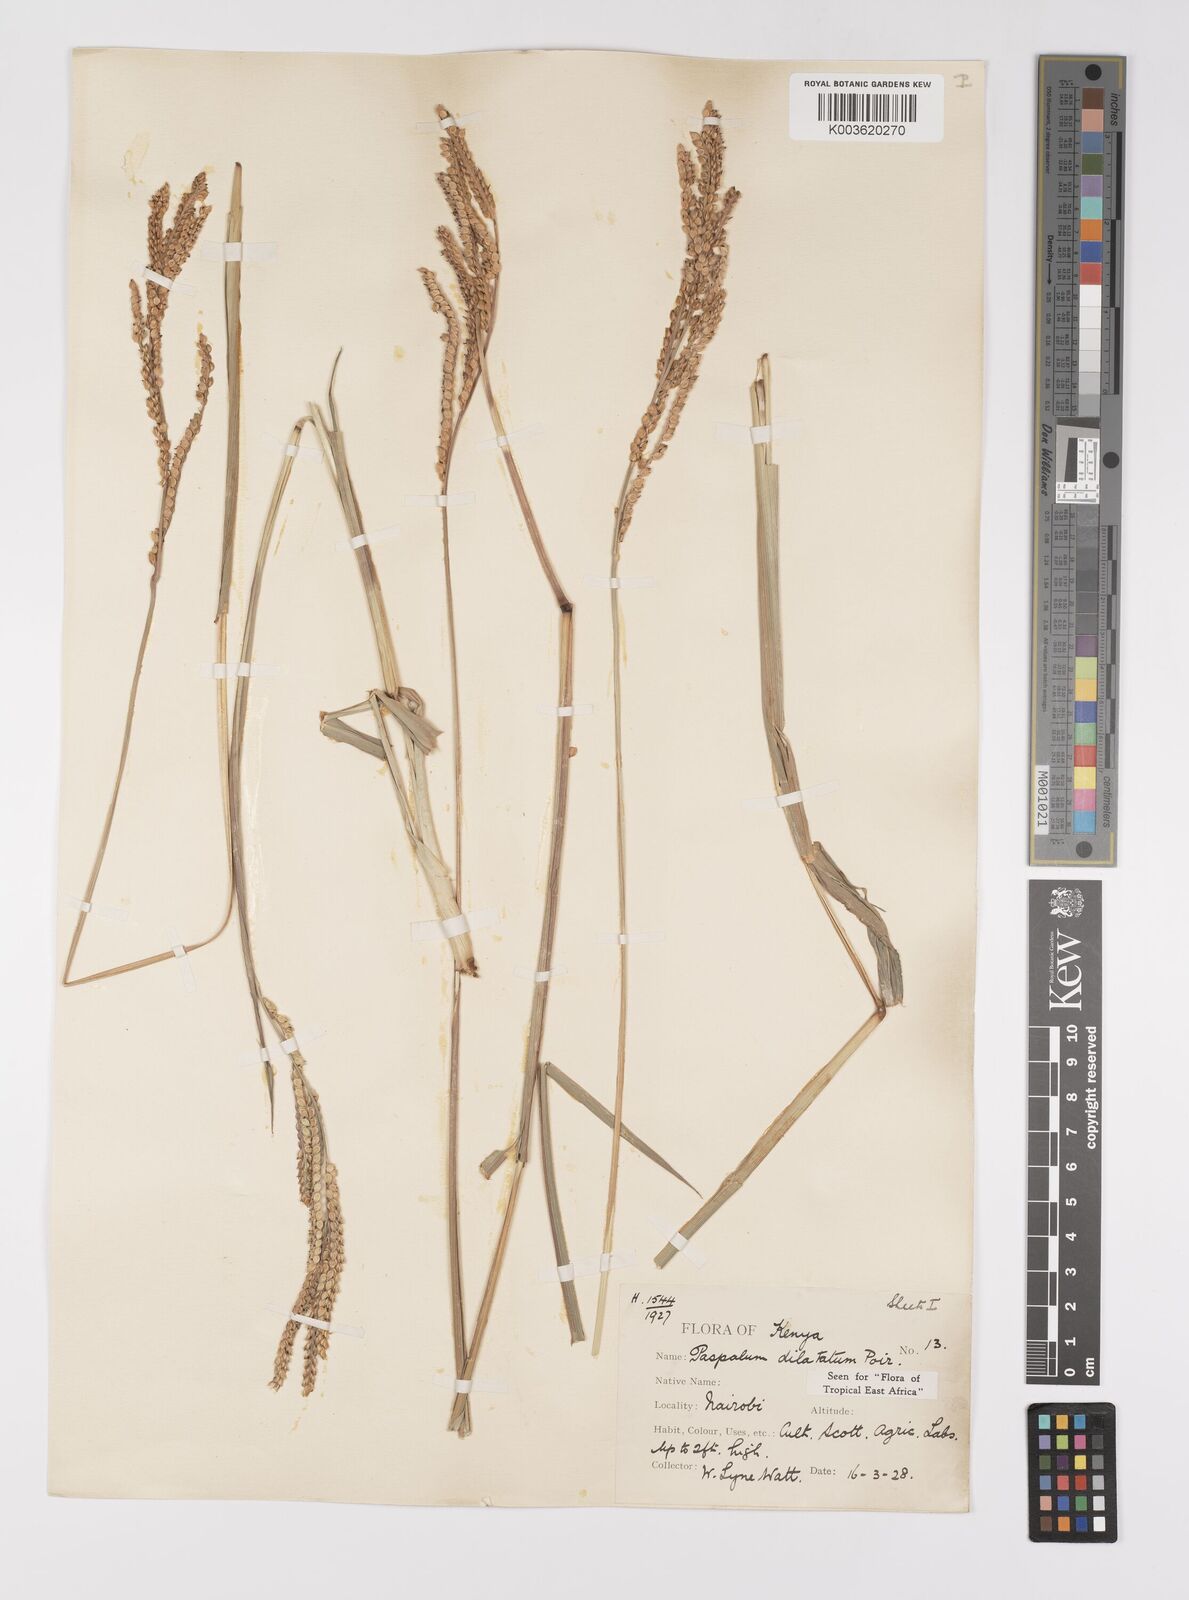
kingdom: Plantae
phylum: Tracheophyta
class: Liliopsida
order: Poales
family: Poaceae
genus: Paspalum
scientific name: Paspalum dilatatum
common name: Dallisgrass
